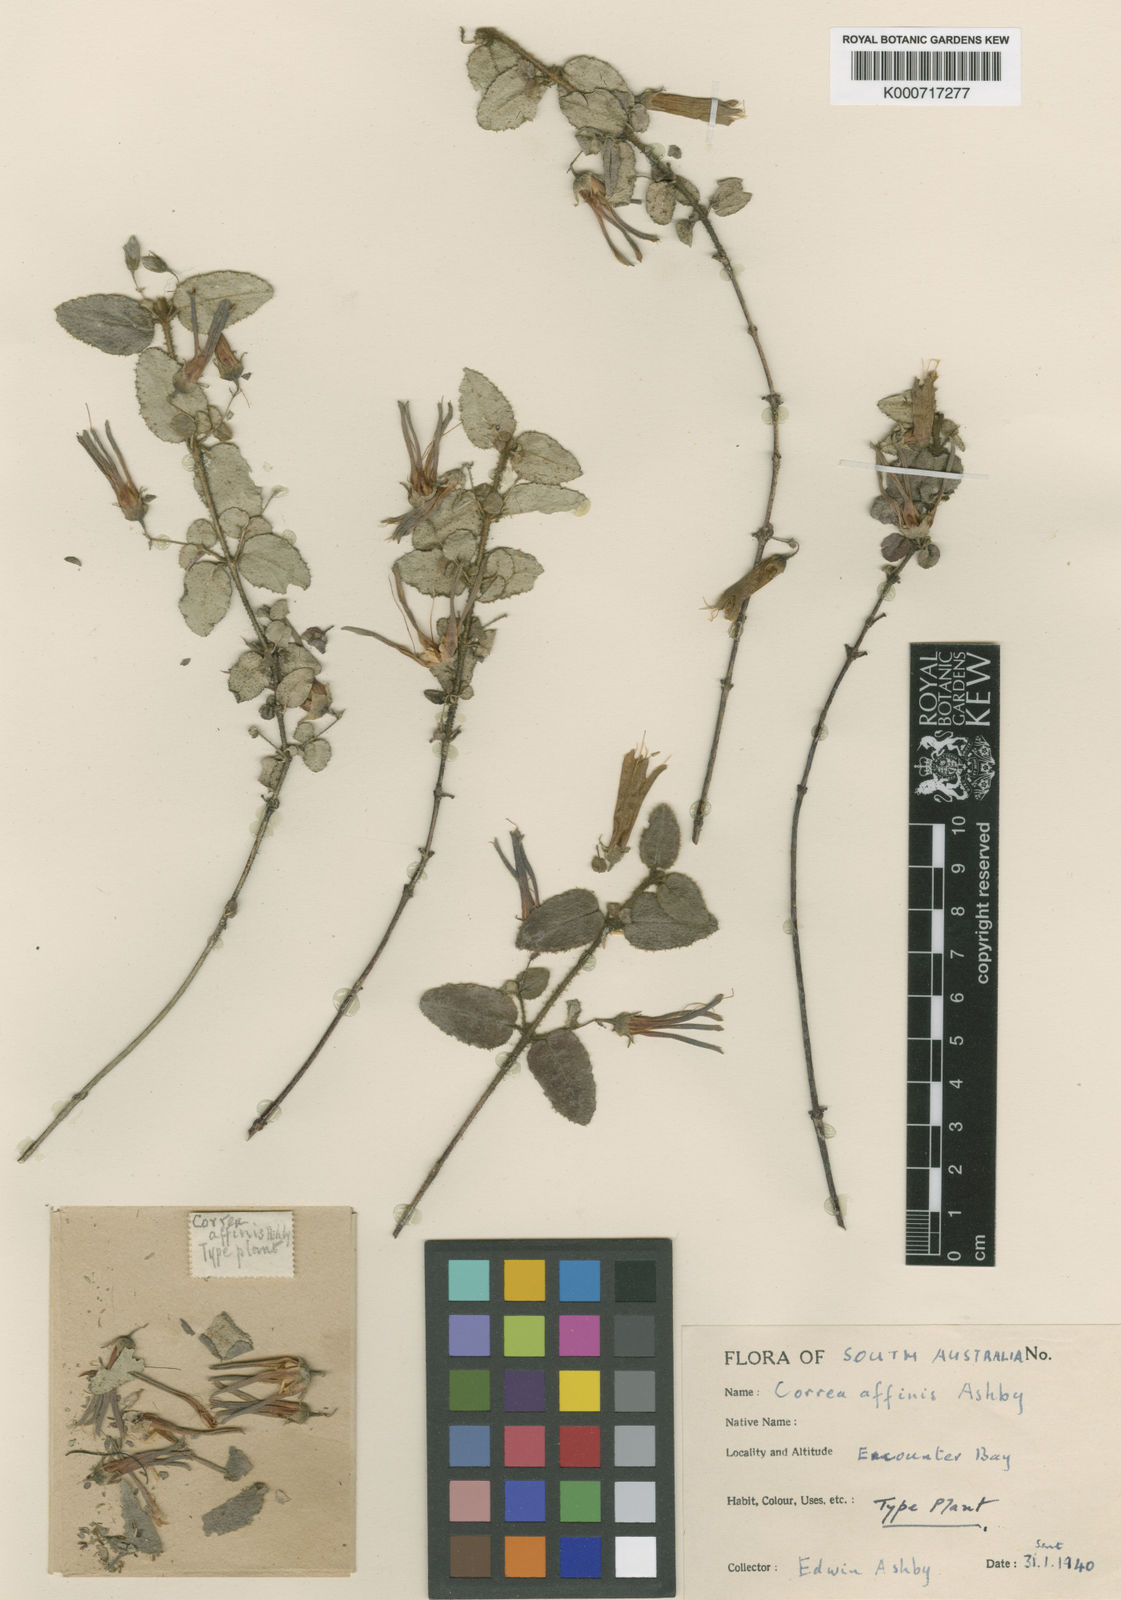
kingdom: Plantae
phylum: Tracheophyta
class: Magnoliopsida
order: Sapindales
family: Rutaceae
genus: Correa
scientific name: Correa aemula
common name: Hairy correa
